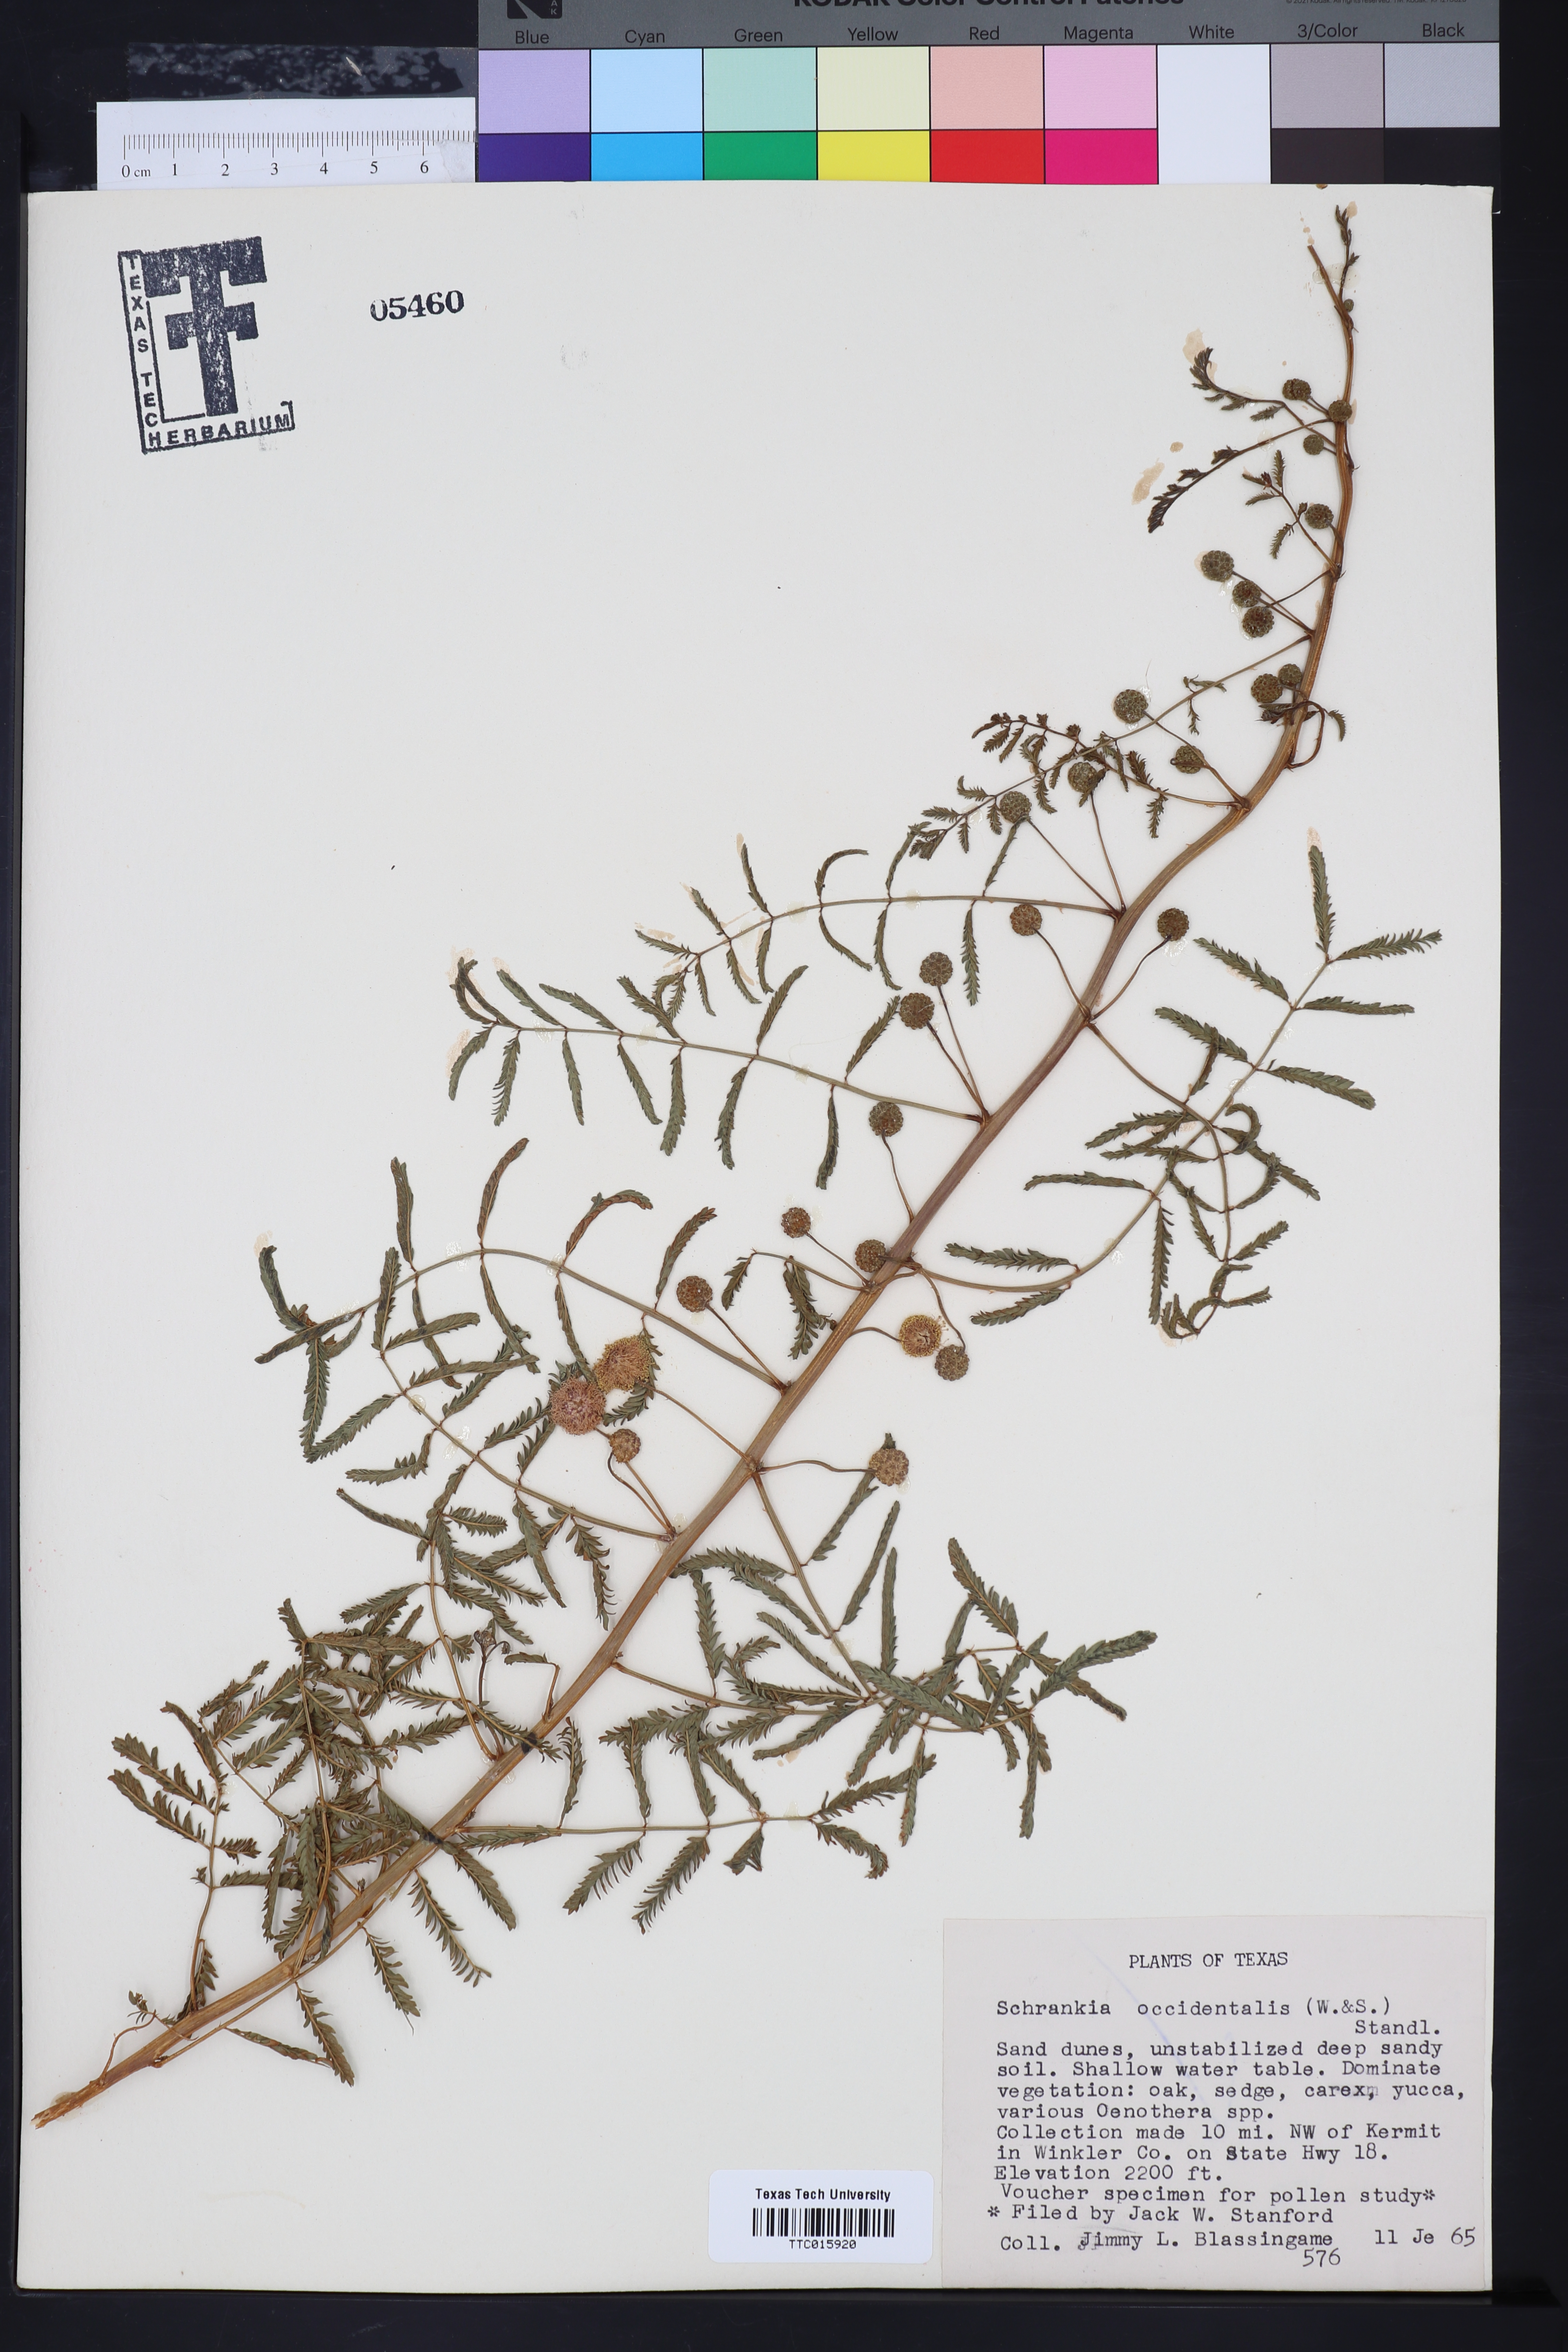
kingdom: Plantae
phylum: Tracheophyta
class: Magnoliopsida
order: Fabales
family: Fabaceae
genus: Mimosa
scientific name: Mimosa quadrivalvis
